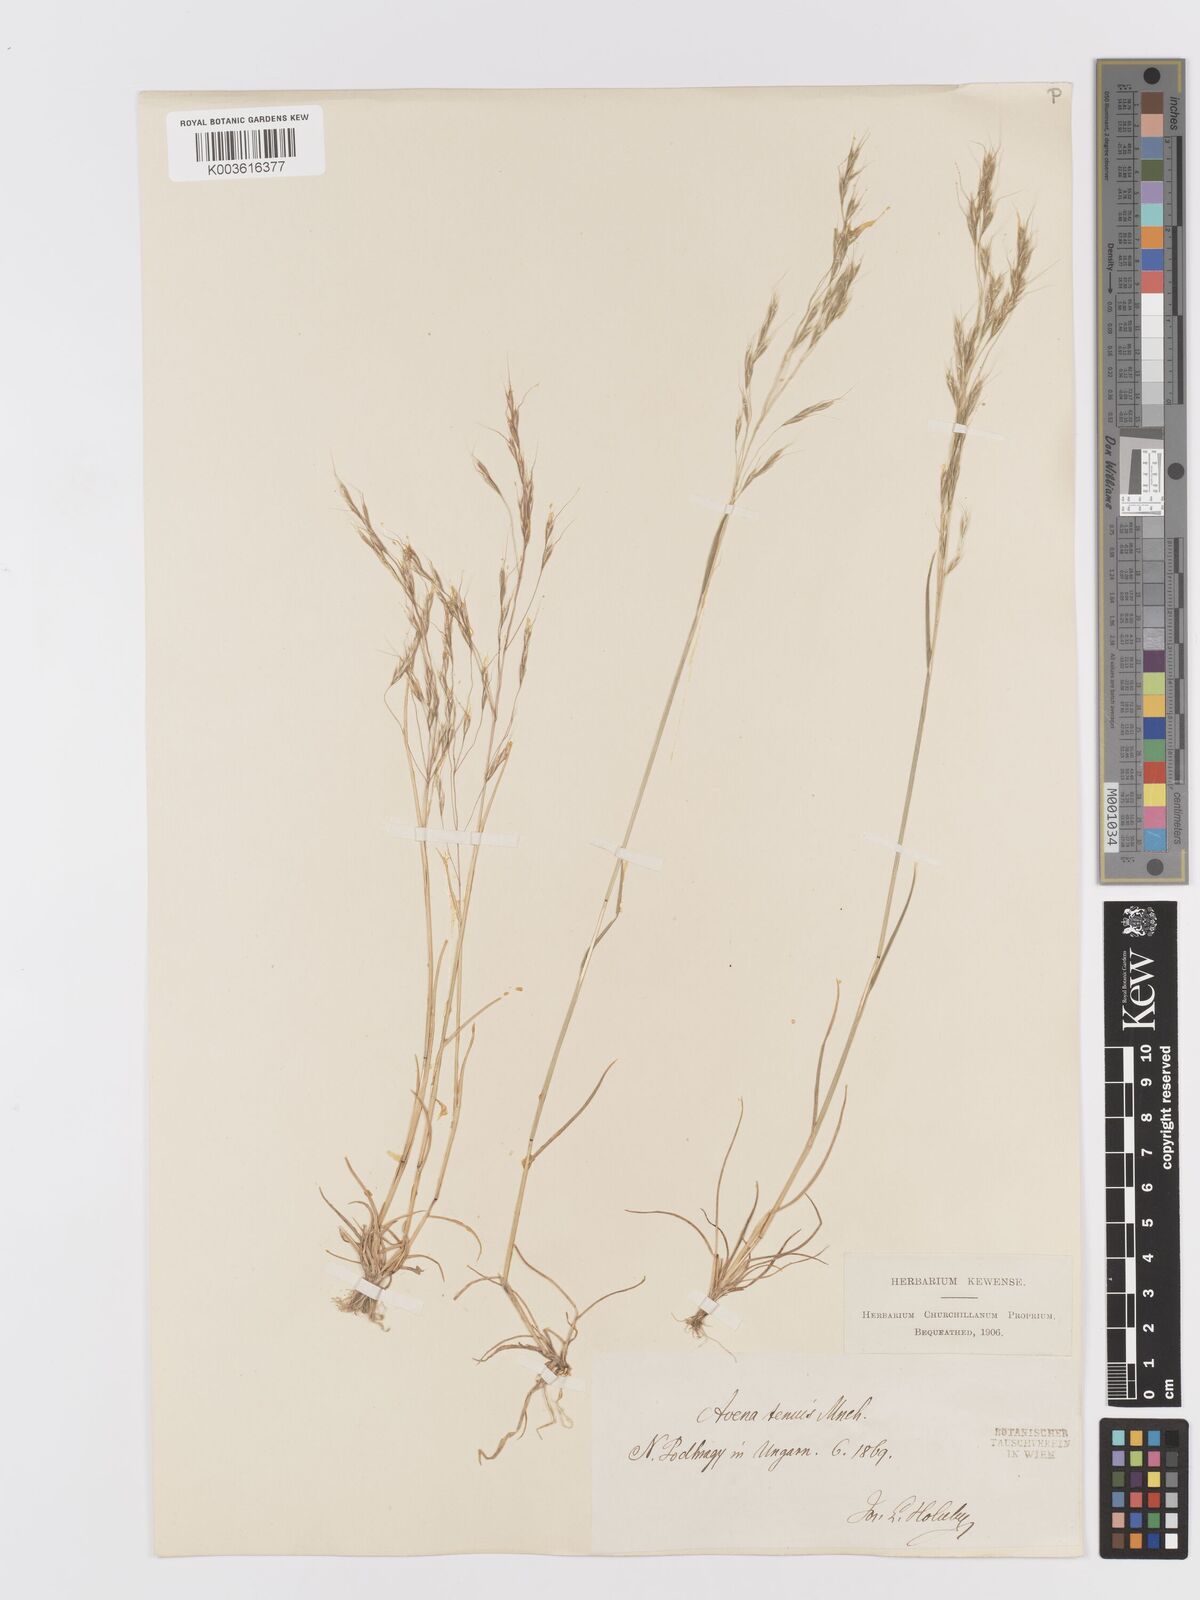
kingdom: Plantae
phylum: Tracheophyta
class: Liliopsida
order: Poales
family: Poaceae
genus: Ventenata
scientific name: Ventenata dubia
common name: North africa grass
